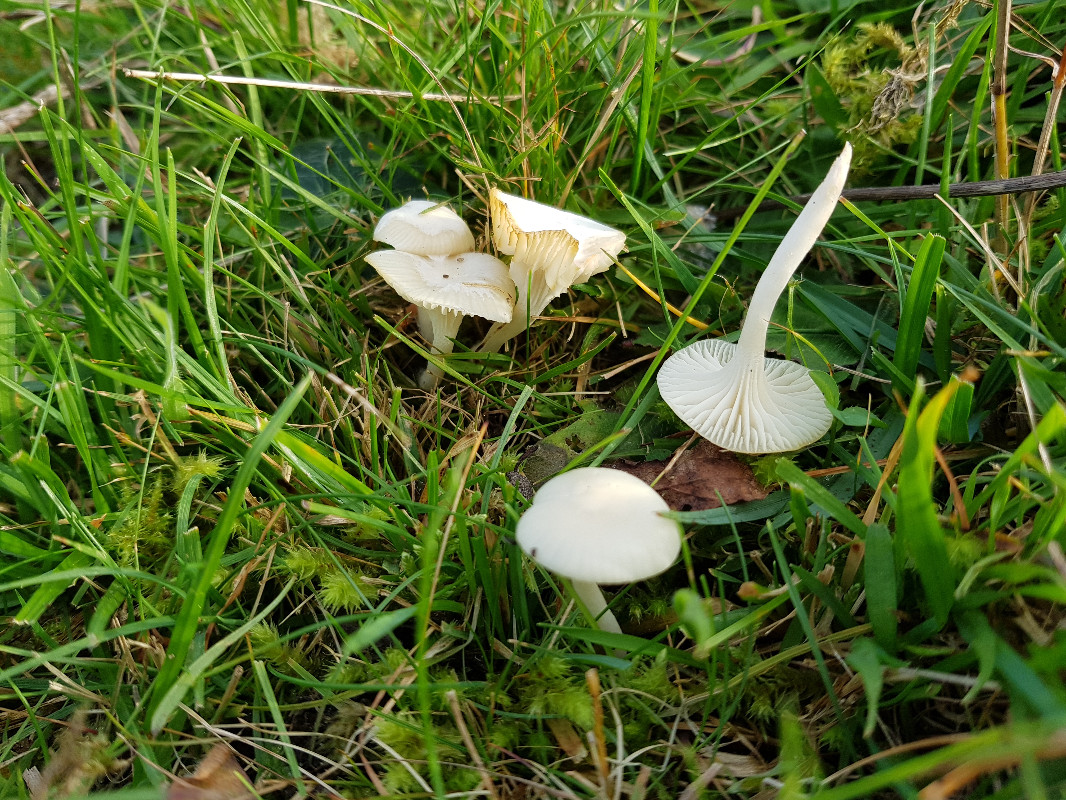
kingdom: Fungi
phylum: Basidiomycota
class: Agaricomycetes
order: Agaricales
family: Hygrophoraceae
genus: Cuphophyllus
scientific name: Cuphophyllus virgineus
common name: snehvid vokshat
